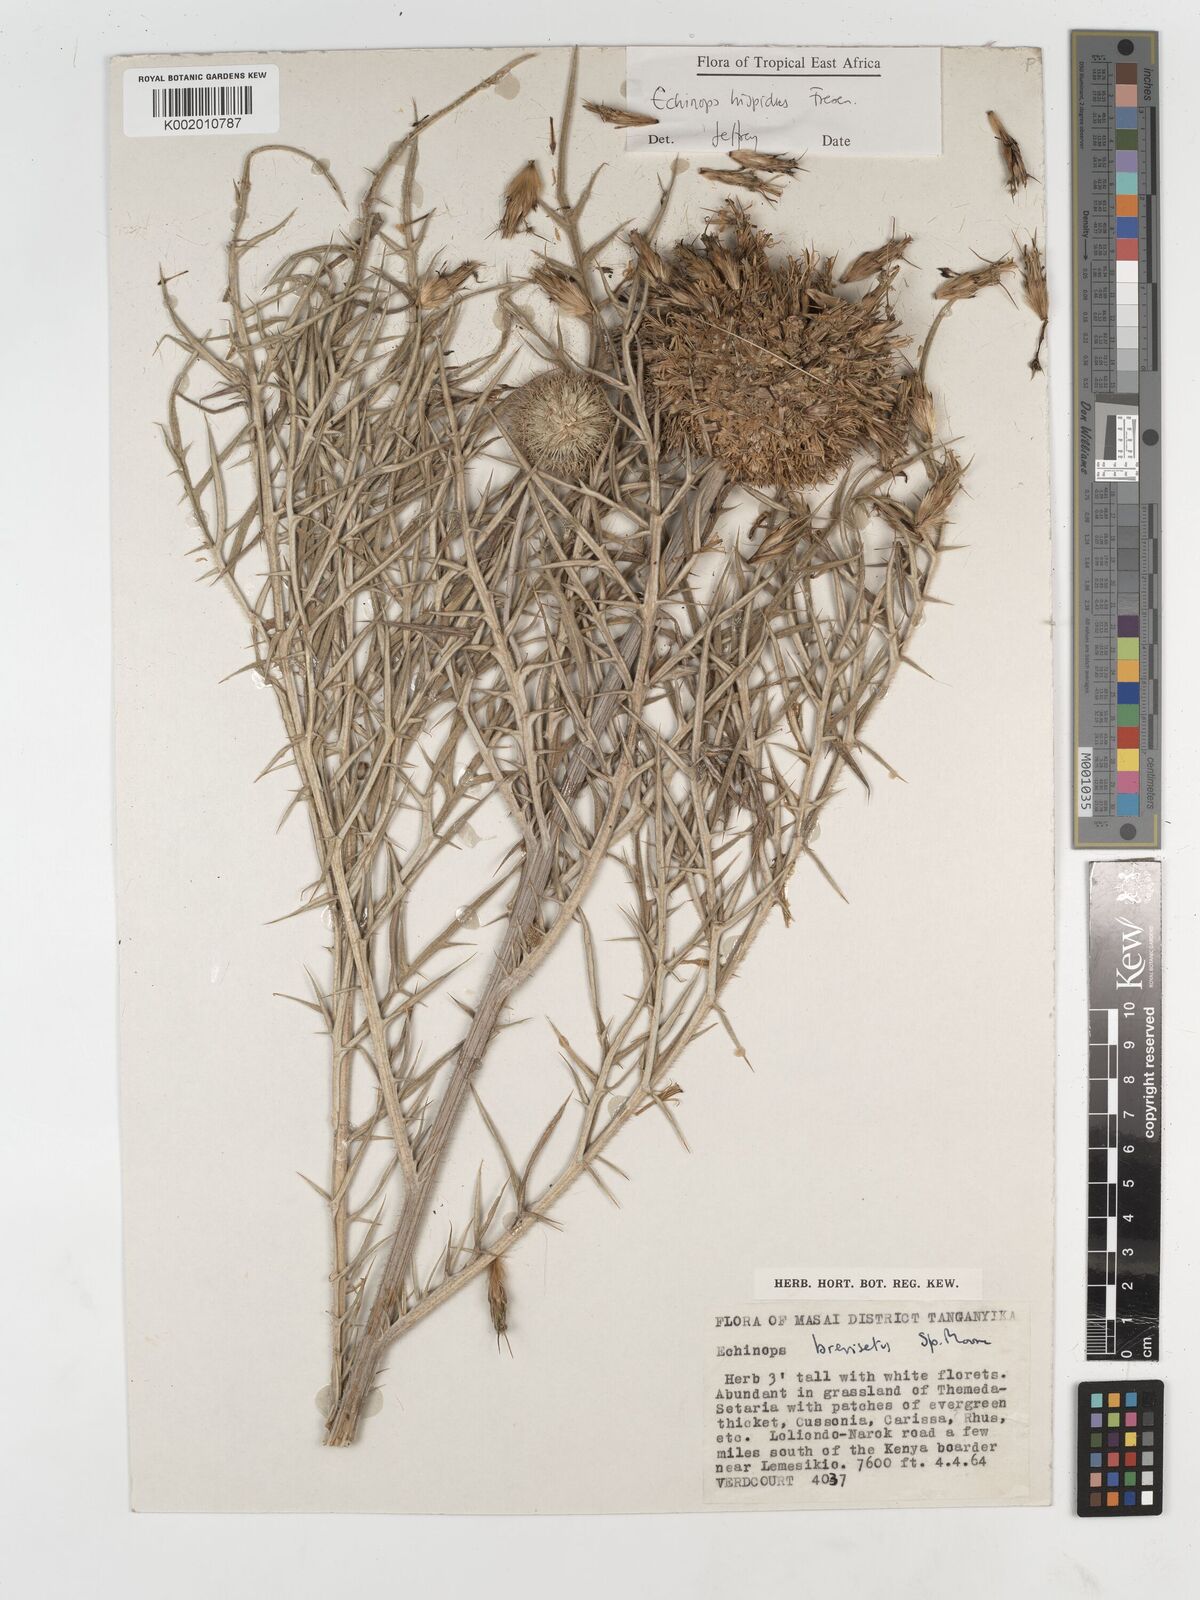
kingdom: Plantae
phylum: Tracheophyta
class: Magnoliopsida
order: Asterales
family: Asteraceae
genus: Echinops
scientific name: Echinops hispidus
